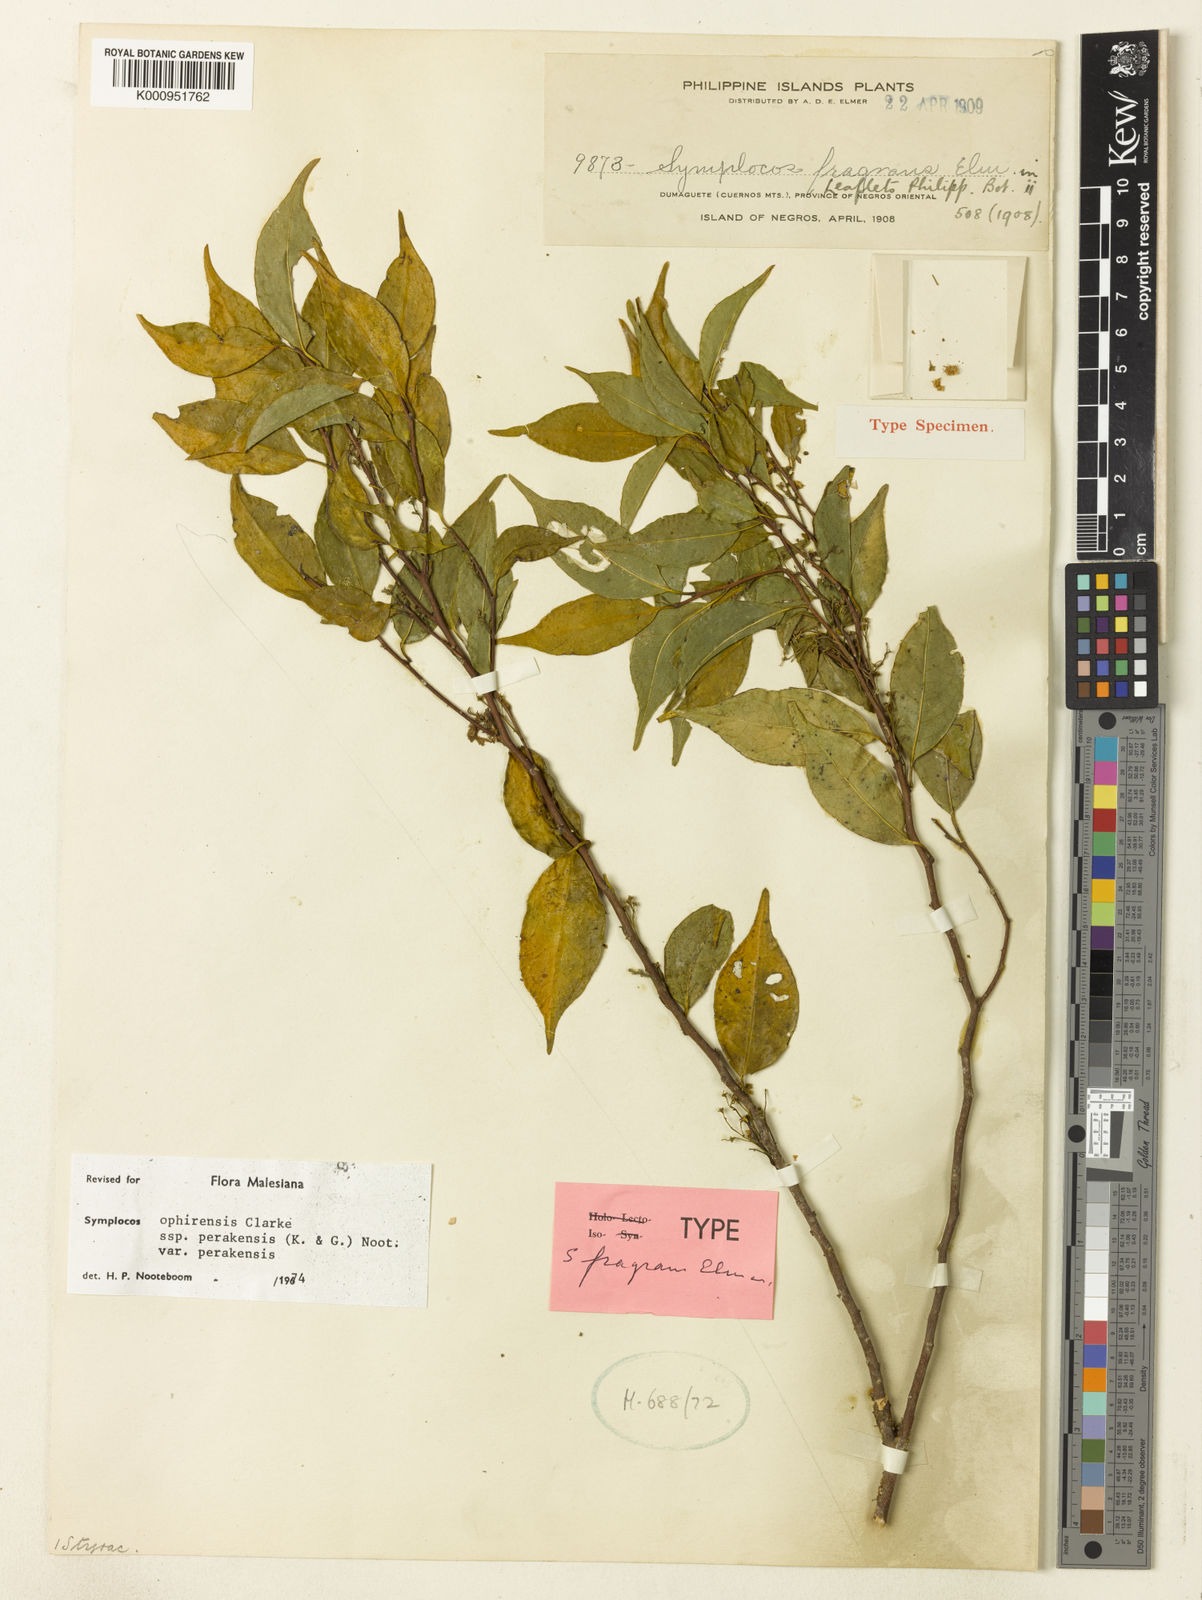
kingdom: Plantae
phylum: Tracheophyta
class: Magnoliopsida
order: Ericales
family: Symplocaceae
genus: Symplocos
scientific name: Symplocos ophirensis
